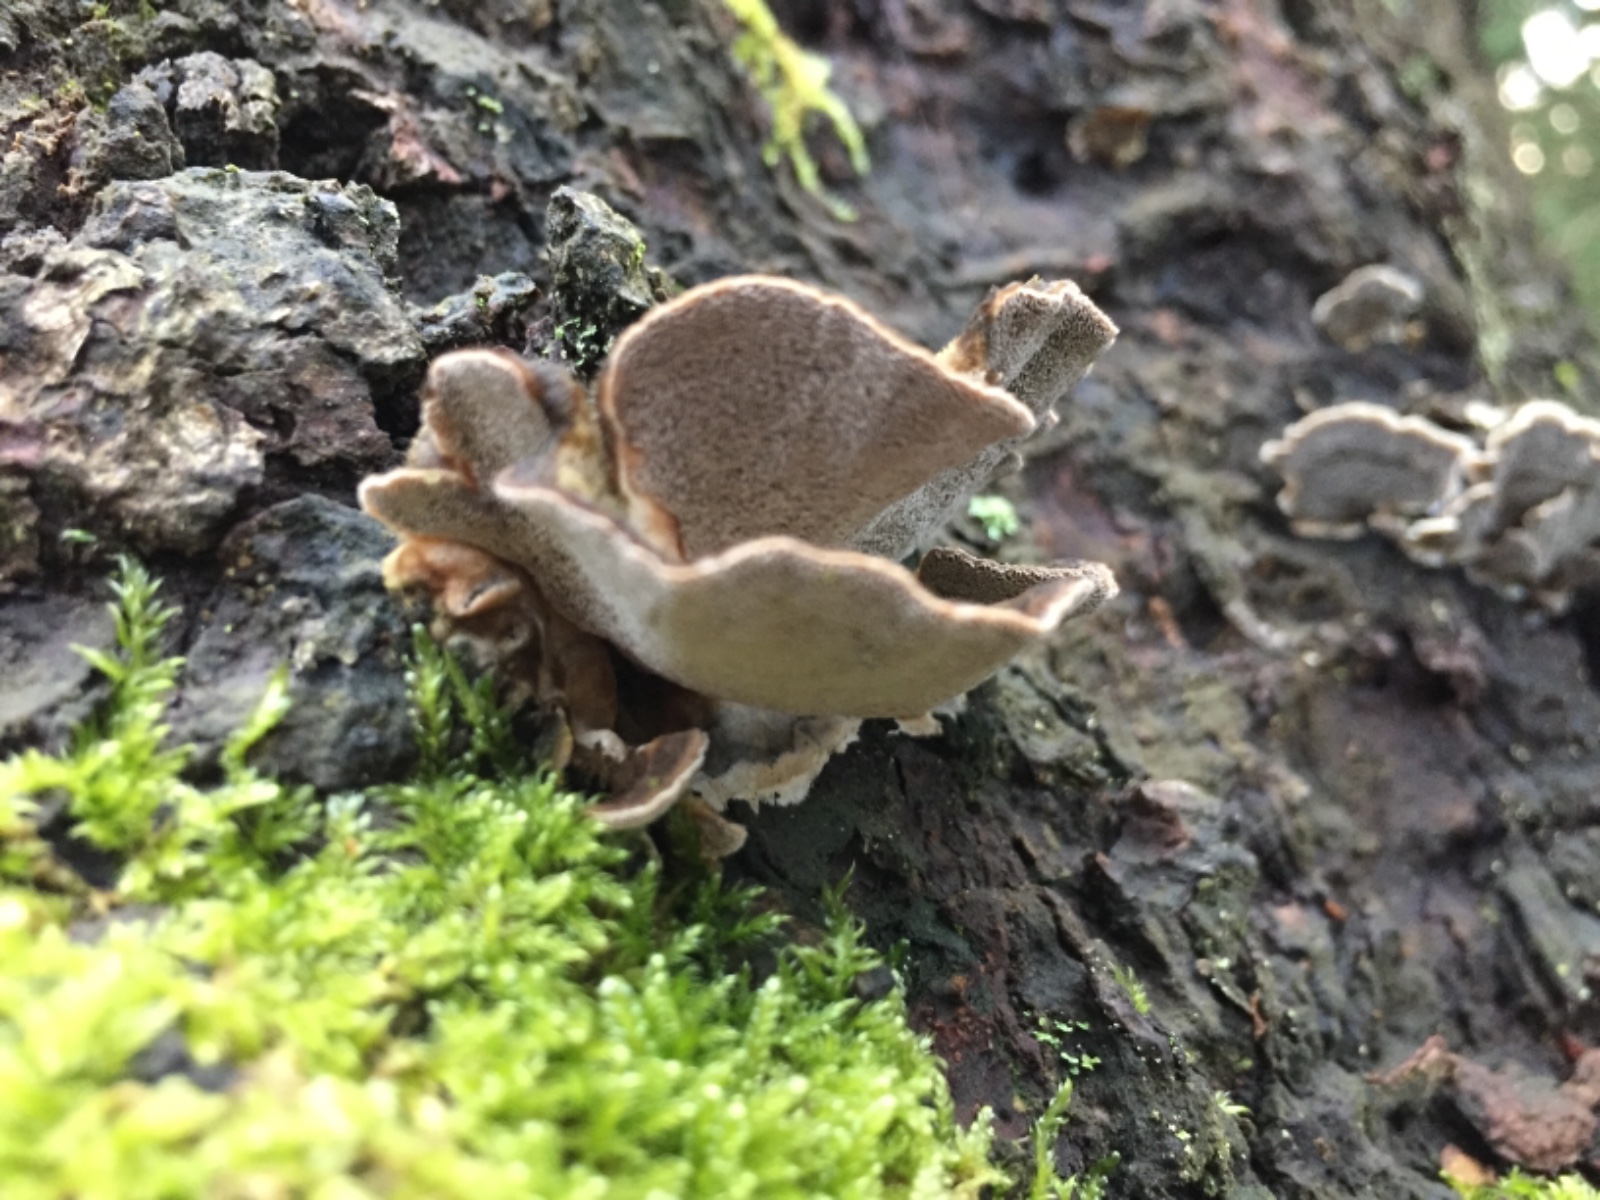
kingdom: Fungi
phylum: Basidiomycota
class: Agaricomycetes
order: Polyporales
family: Phanerochaetaceae
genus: Bjerkandera
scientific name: Bjerkandera adusta
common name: sveden sodporesvamp
